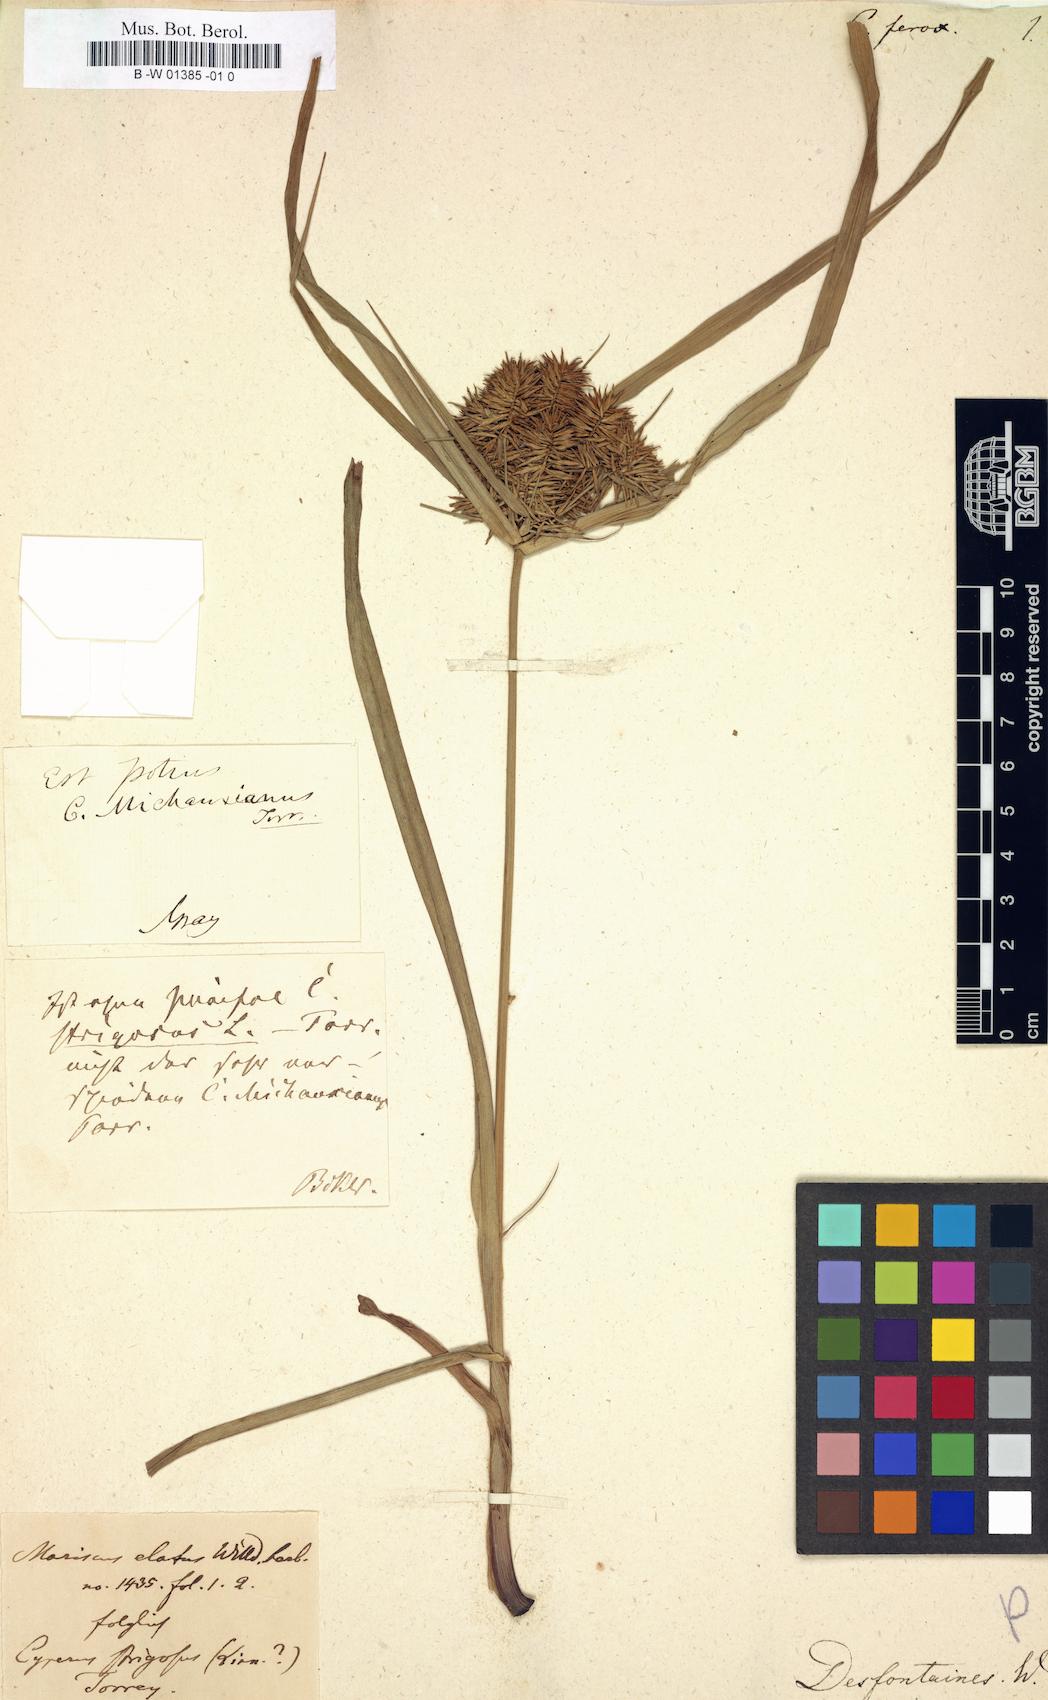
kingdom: Plantae
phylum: Tracheophyta
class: Liliopsida
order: Poales
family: Cyperaceae
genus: Cyperus
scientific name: Cyperus odoratus
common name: Fragrant flatsedge
